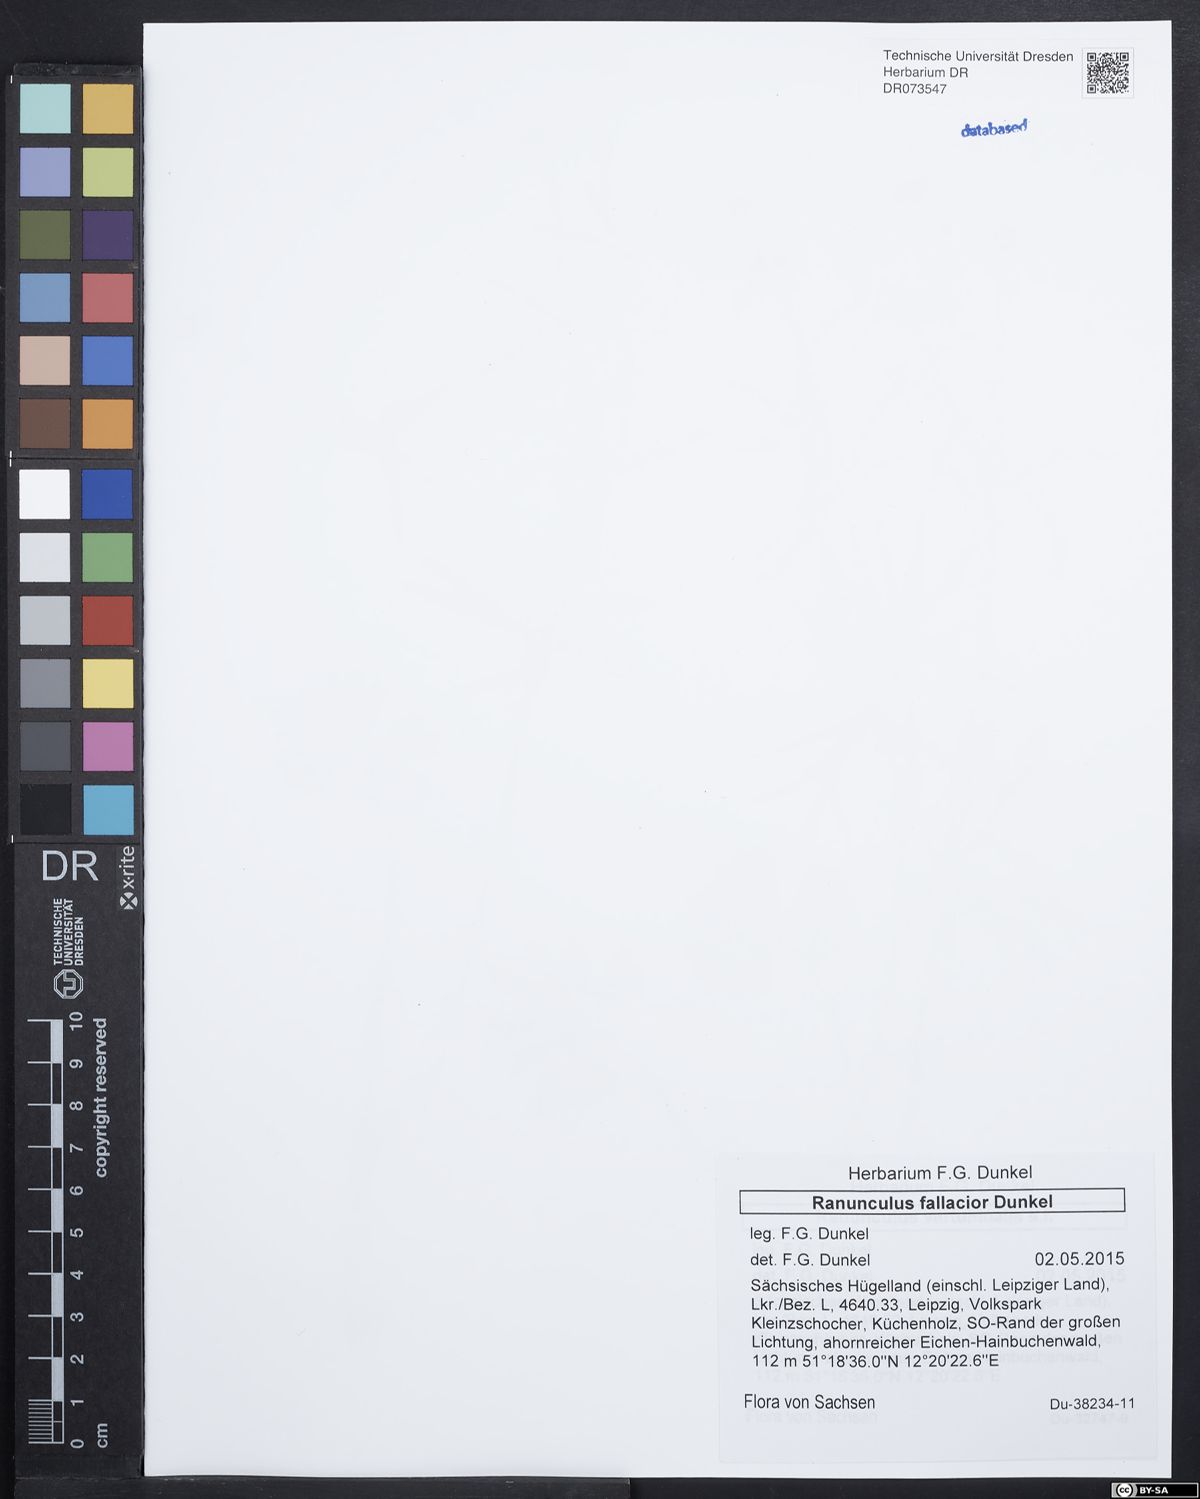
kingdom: Plantae
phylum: Tracheophyta
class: Magnoliopsida
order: Ranunculales
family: Ranunculaceae
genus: Ranunculus
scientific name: Ranunculus fallacior
